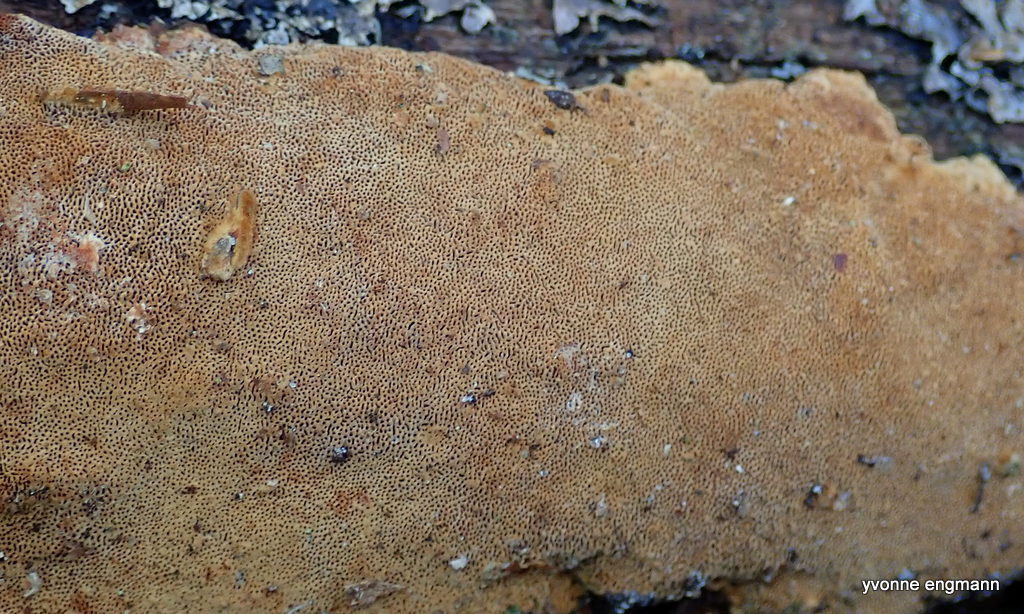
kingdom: Fungi
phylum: Basidiomycota
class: Agaricomycetes
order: Hymenochaetales
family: Hymenochaetaceae
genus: Fuscoporia
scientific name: Fuscoporia ferrea
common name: skorpe-ildporesvamp
